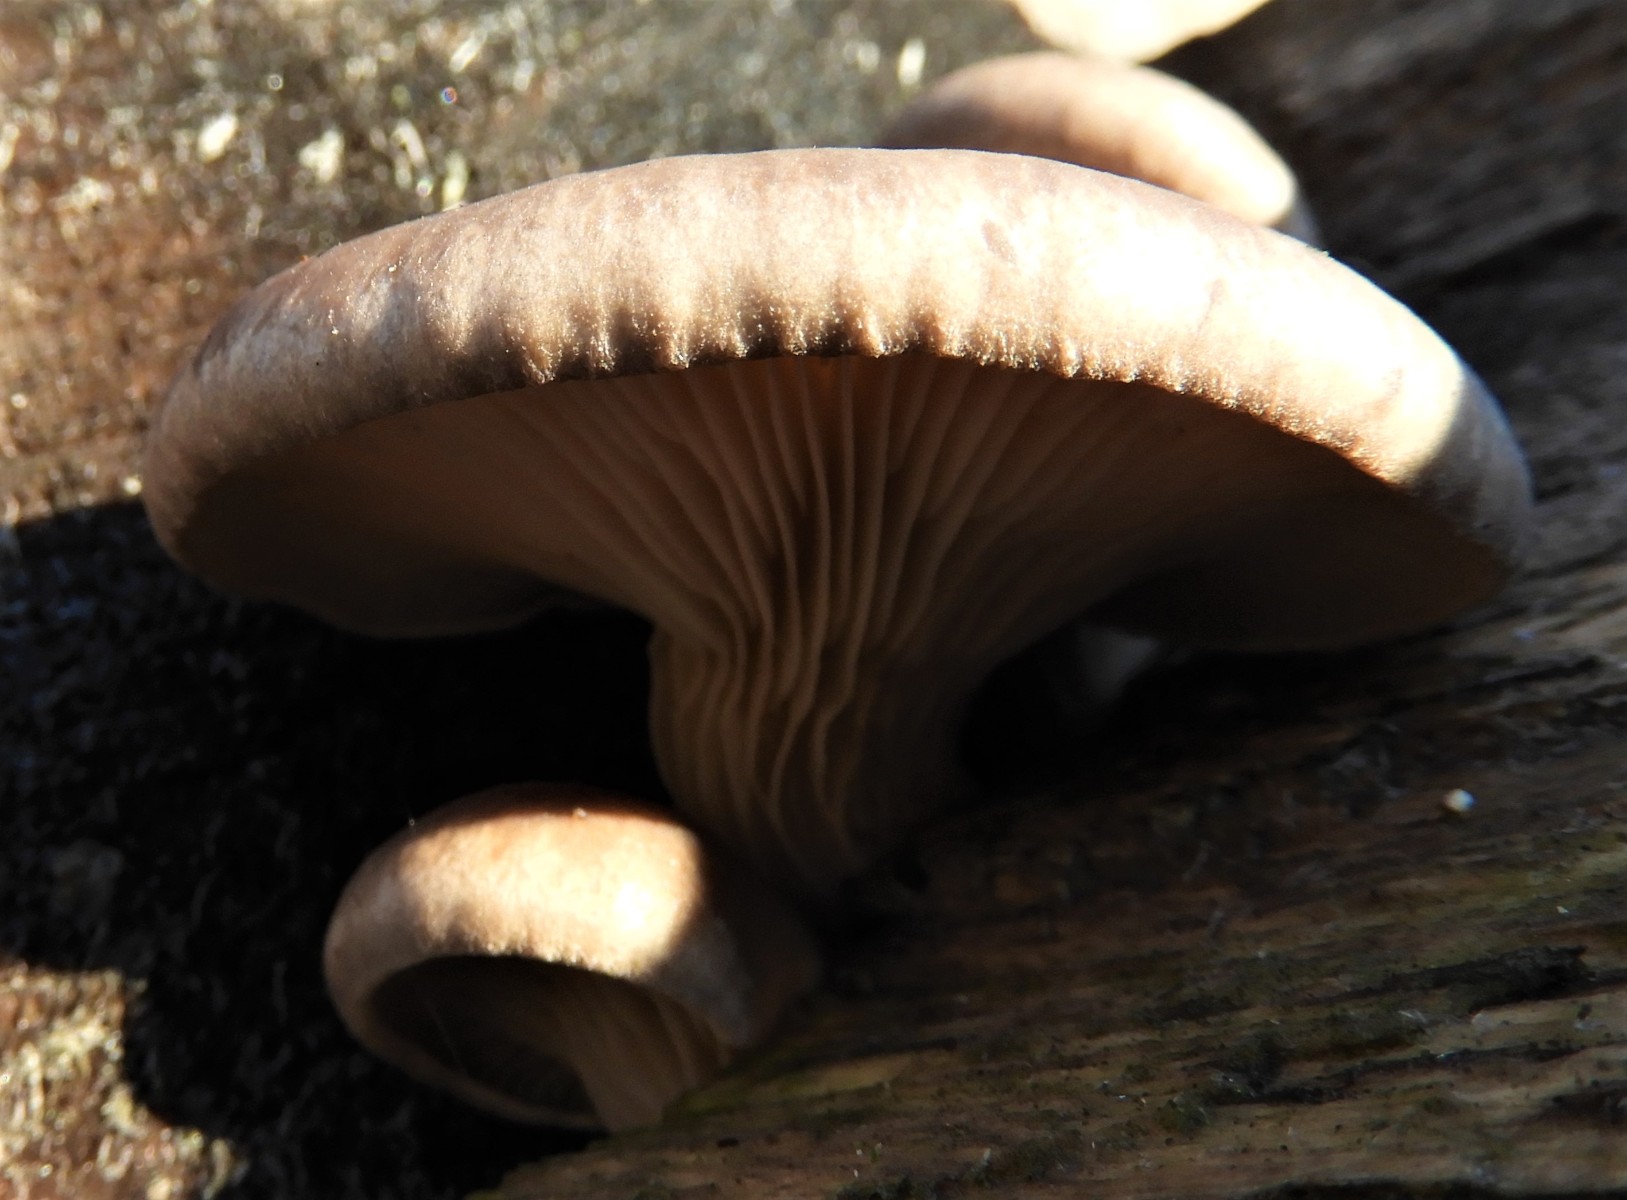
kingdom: Fungi
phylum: Basidiomycota
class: Agaricomycetes
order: Agaricales
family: Pleurotaceae
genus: Pleurotus
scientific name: Pleurotus ostreatus
